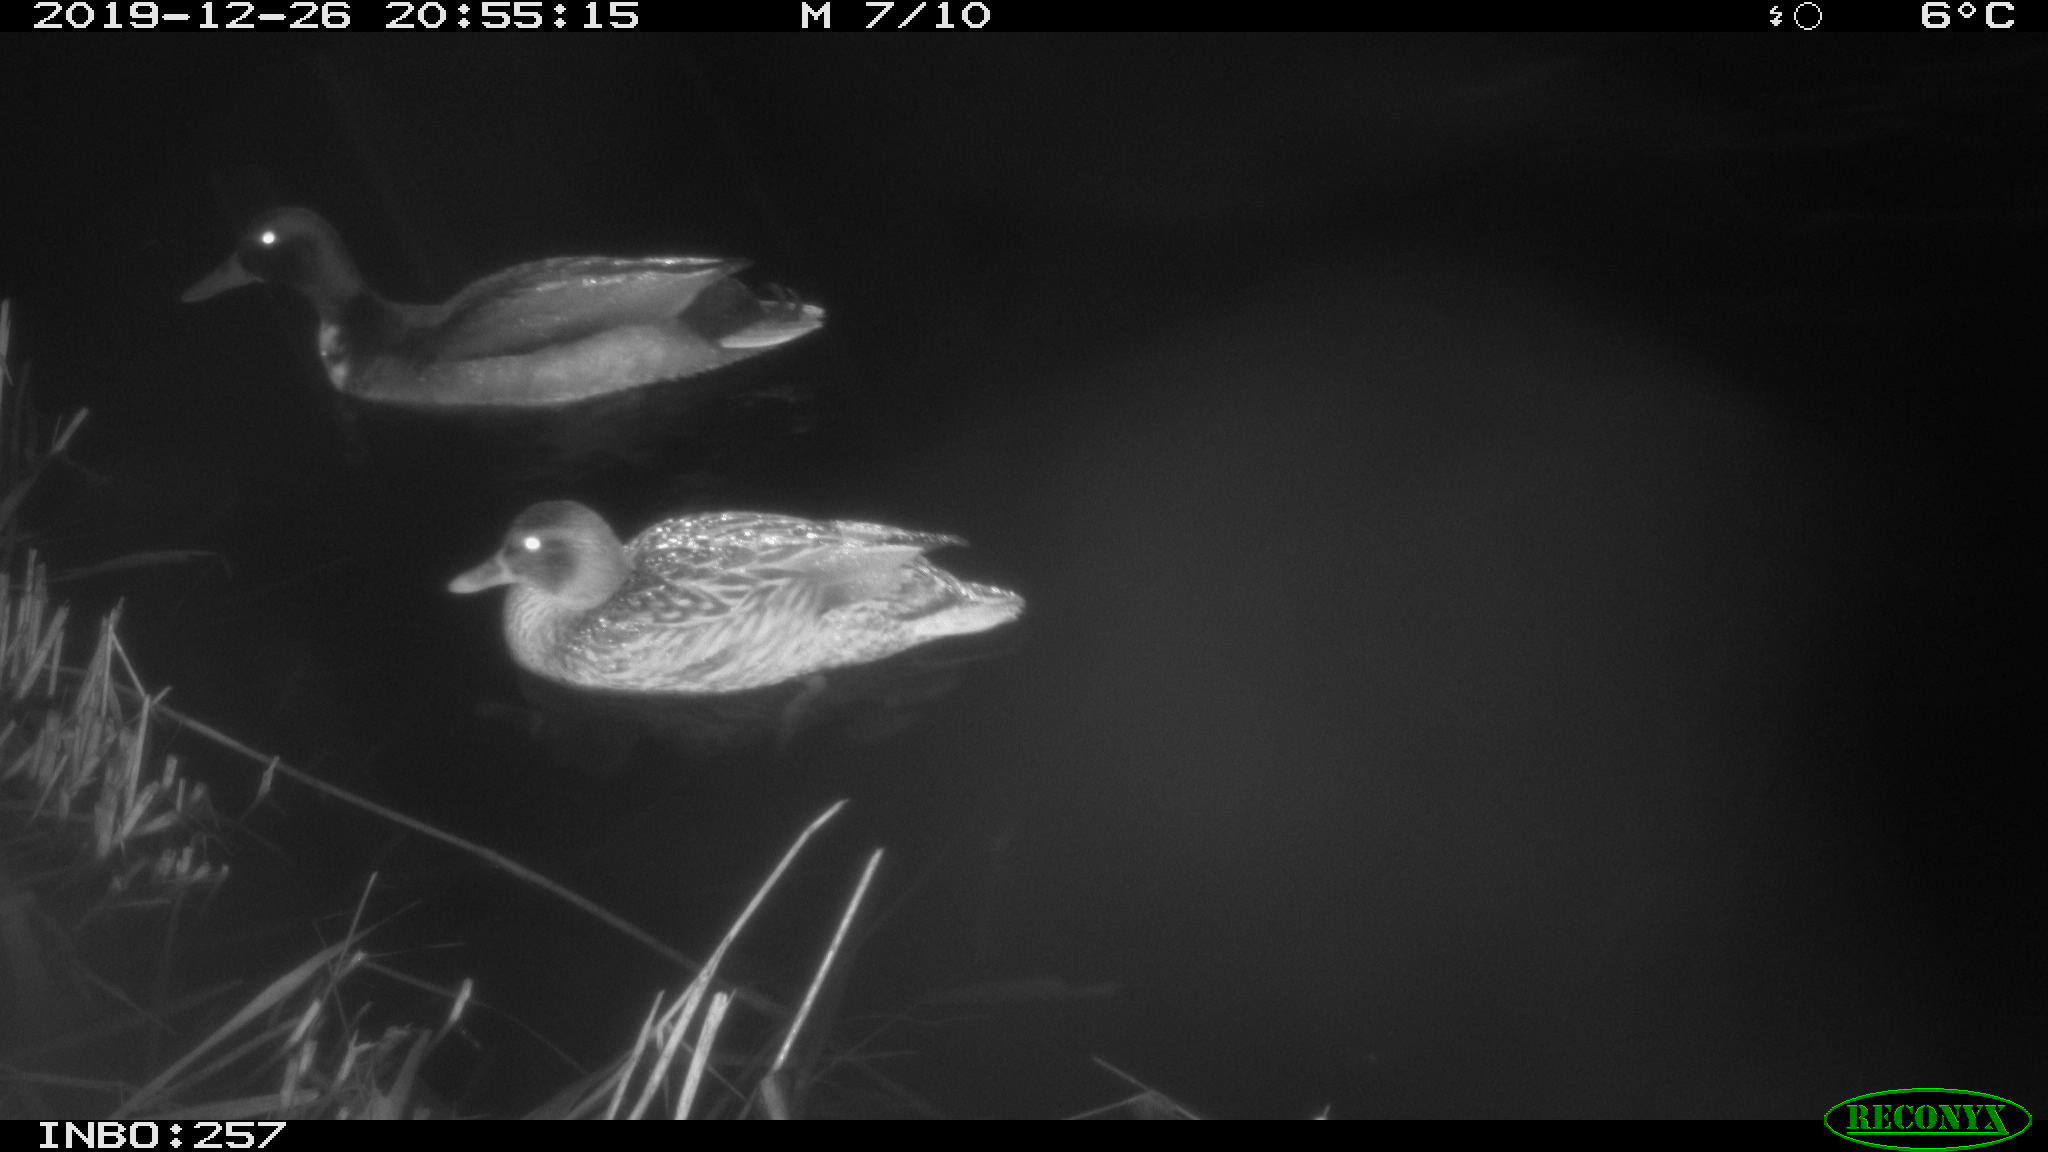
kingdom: Animalia
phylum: Chordata
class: Aves
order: Anseriformes
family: Anatidae
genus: Anas
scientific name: Anas platyrhynchos
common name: Mallard
